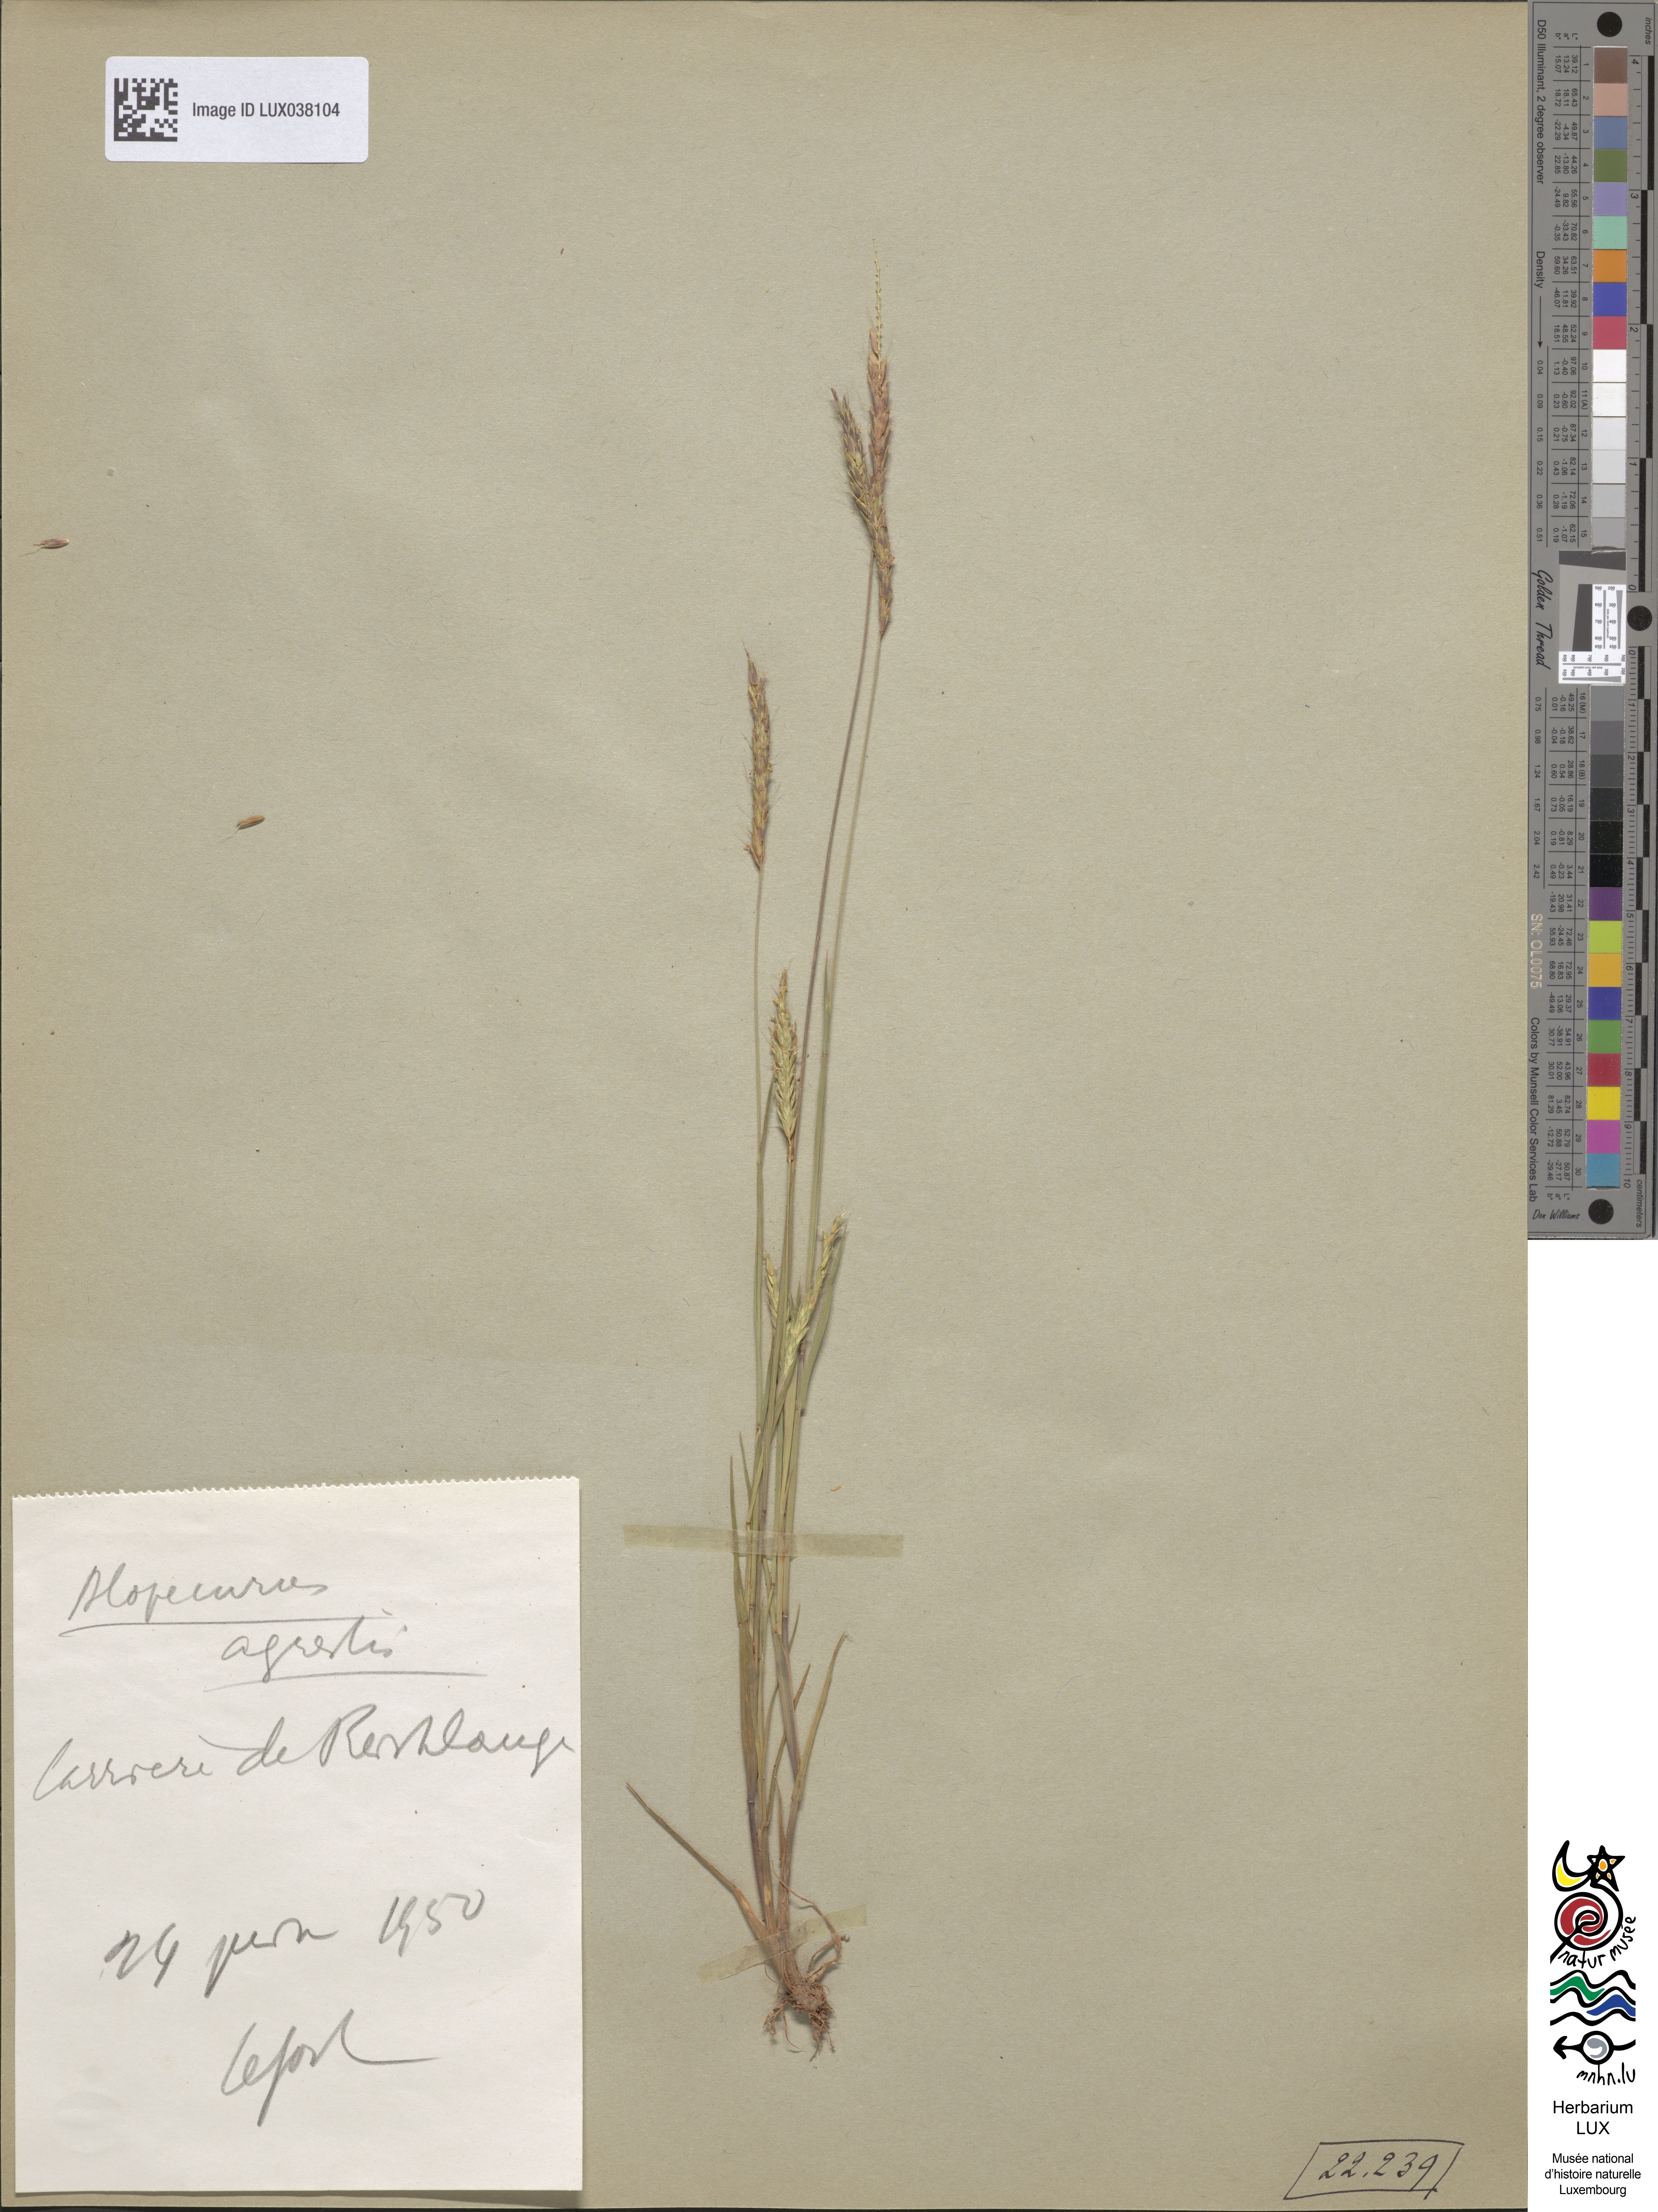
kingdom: Plantae
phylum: Tracheophyta
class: Liliopsida
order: Poales
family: Poaceae
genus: Alopecurus
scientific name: Alopecurus myosuroides
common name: Black-grass
